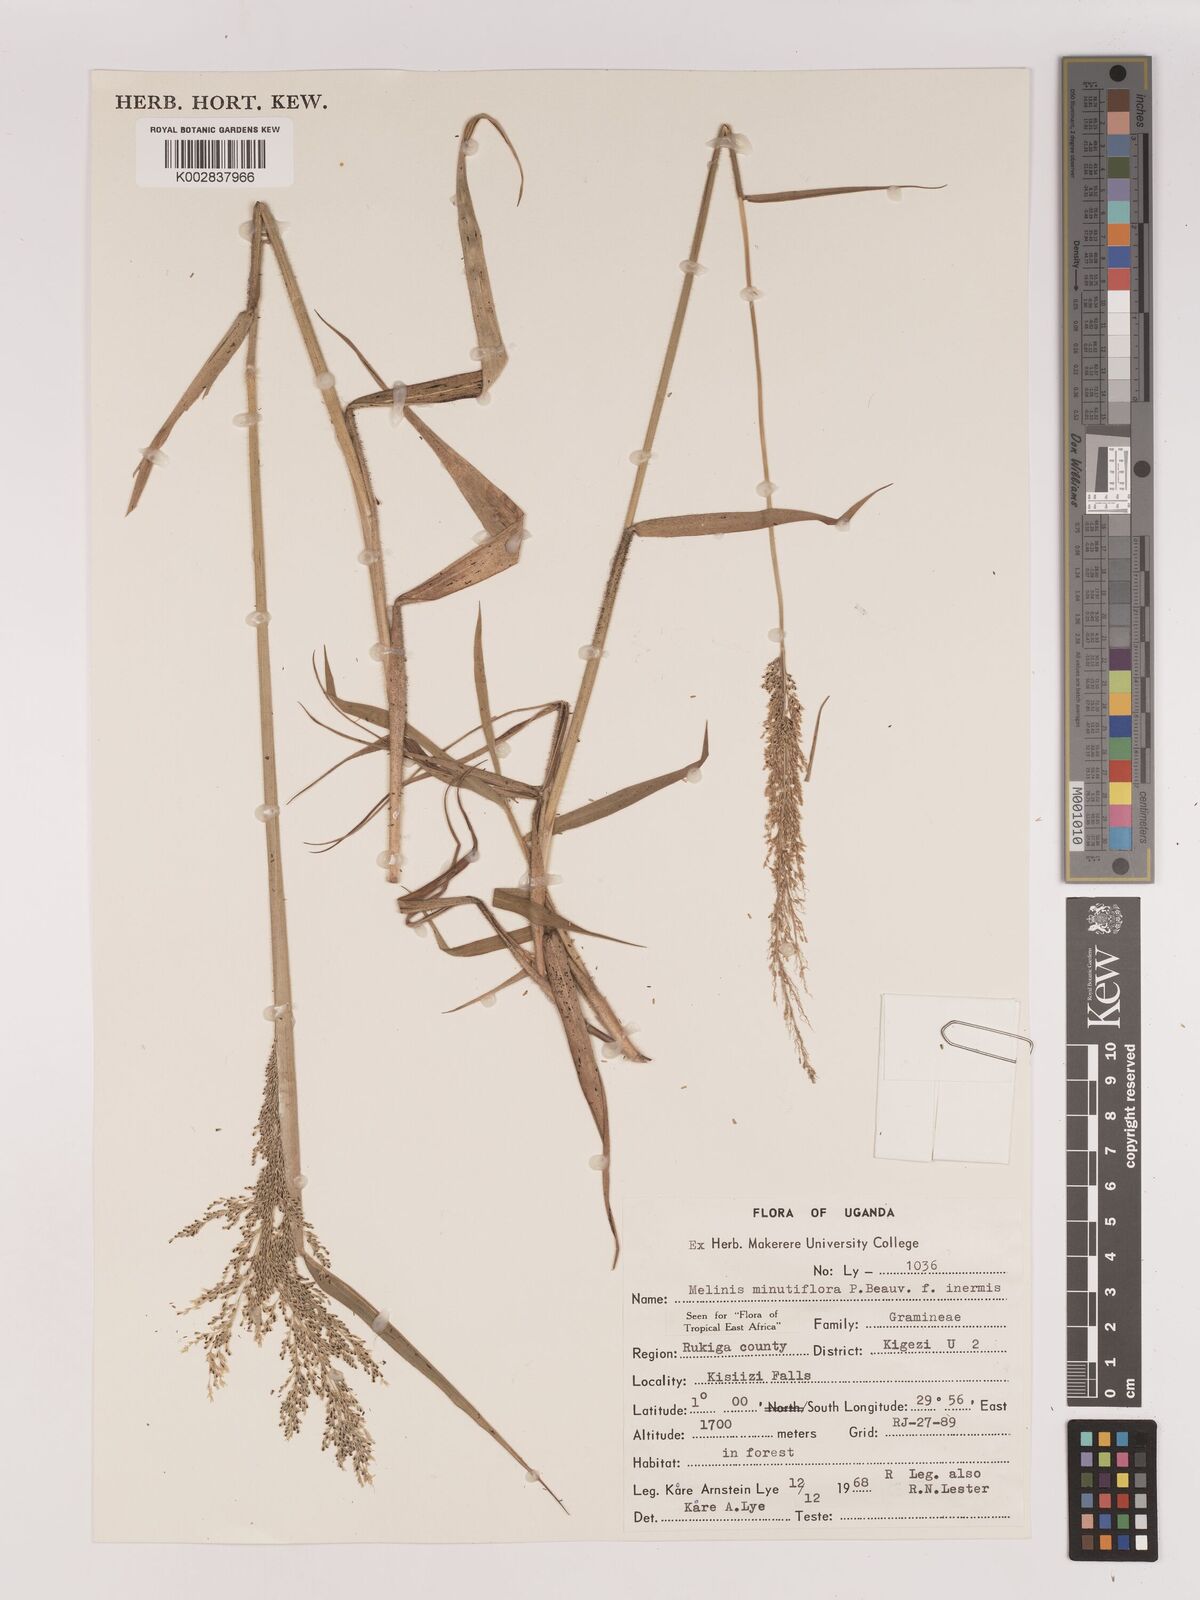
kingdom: Plantae
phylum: Tracheophyta
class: Liliopsida
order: Poales
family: Poaceae
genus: Melinis
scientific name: Melinis minutiflora
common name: Molassesgrass
